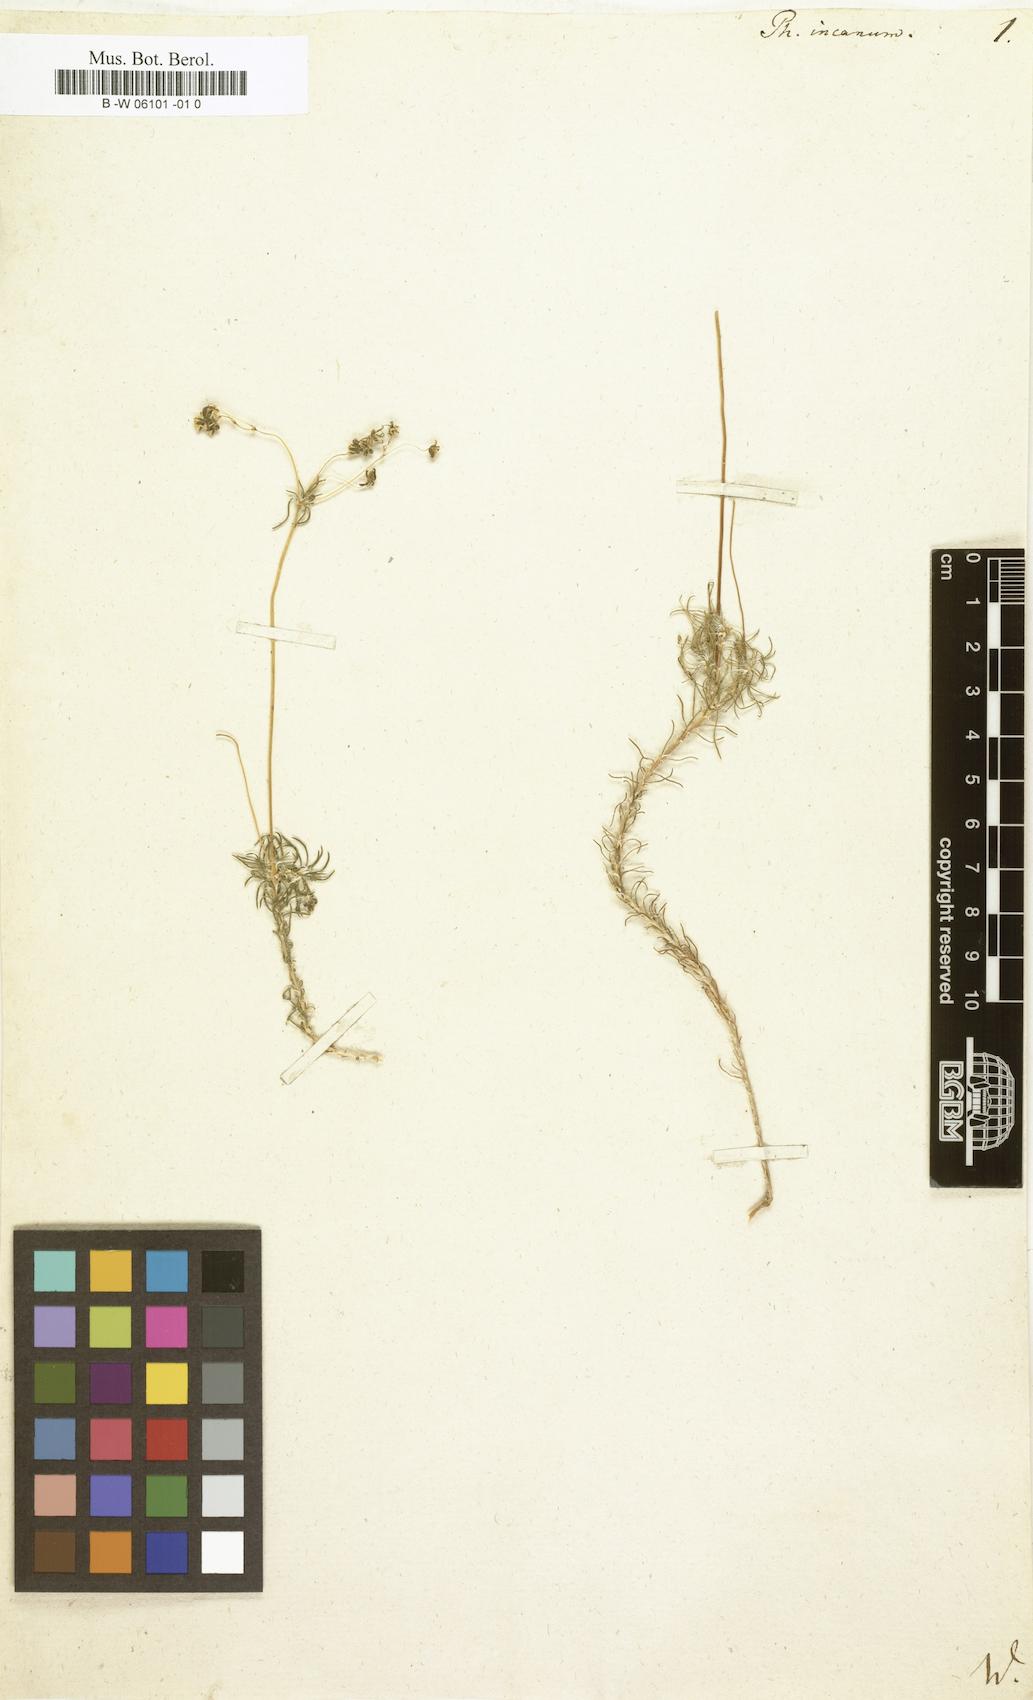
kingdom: Plantae
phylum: Tracheophyta
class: Magnoliopsida
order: Caryophyllales
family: Molluginaceae
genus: Pharnaceum
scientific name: Pharnaceum incanum
